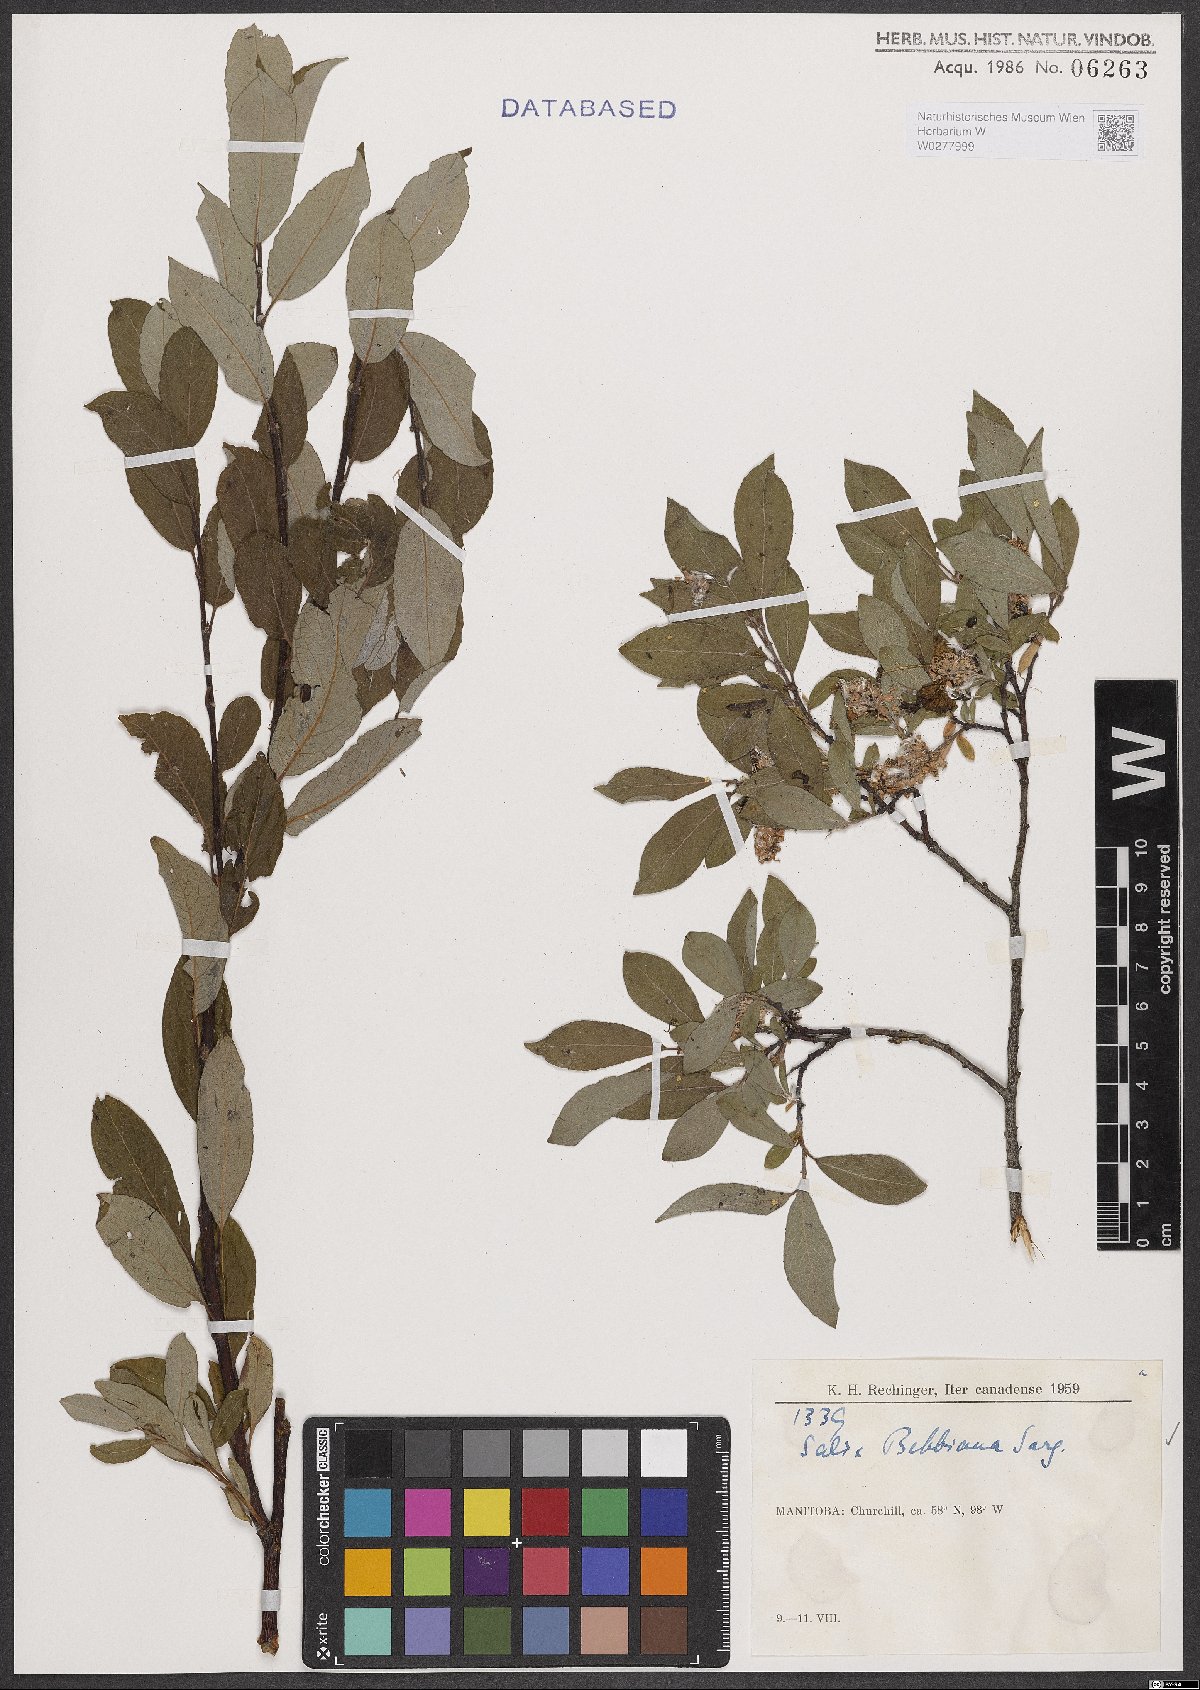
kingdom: Plantae
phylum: Tracheophyta
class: Magnoliopsida
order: Malpighiales
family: Salicaceae
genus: Salix
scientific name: Salix bebbiana
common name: Bebb's willow
